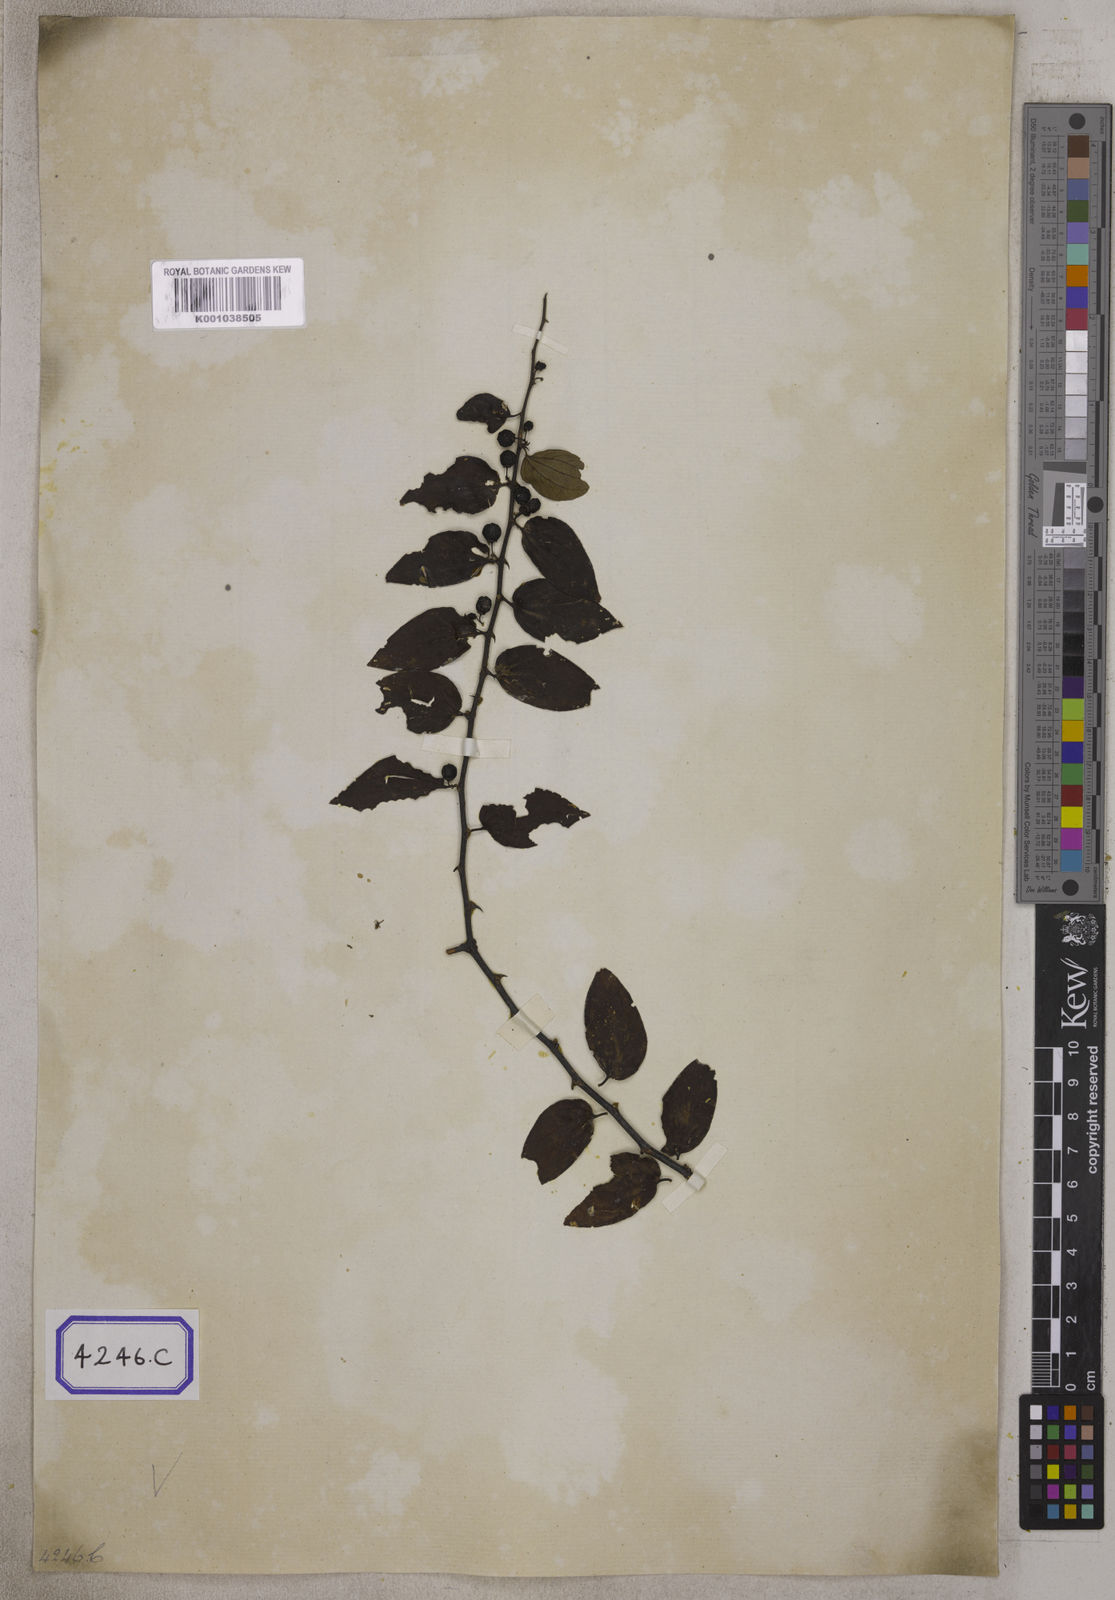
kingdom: Plantae
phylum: Tracheophyta
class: Magnoliopsida
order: Rosales
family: Rhamnaceae
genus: Ziziphus
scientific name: Ziziphus
